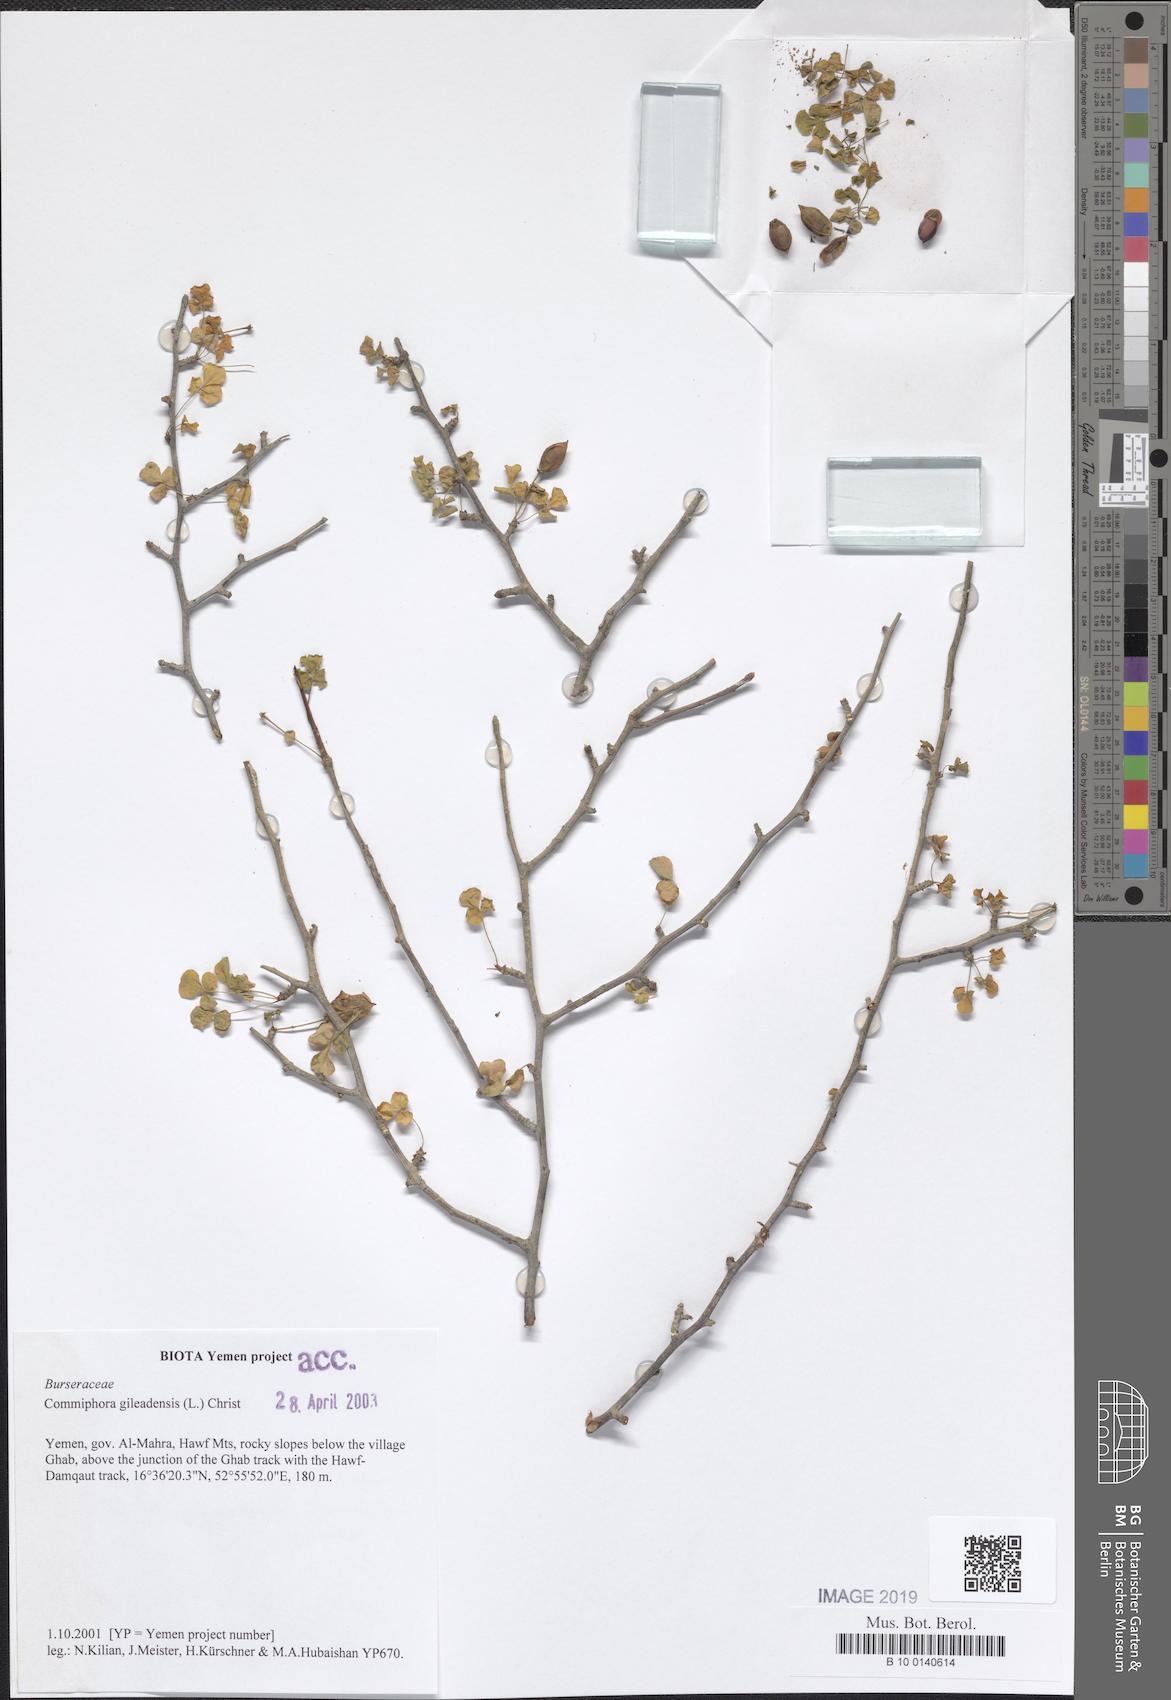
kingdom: Plantae
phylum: Tracheophyta
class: Magnoliopsida
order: Sapindales
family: Burseraceae
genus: Commiphora
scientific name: Commiphora gileadensis
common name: Balm-of-gilead
